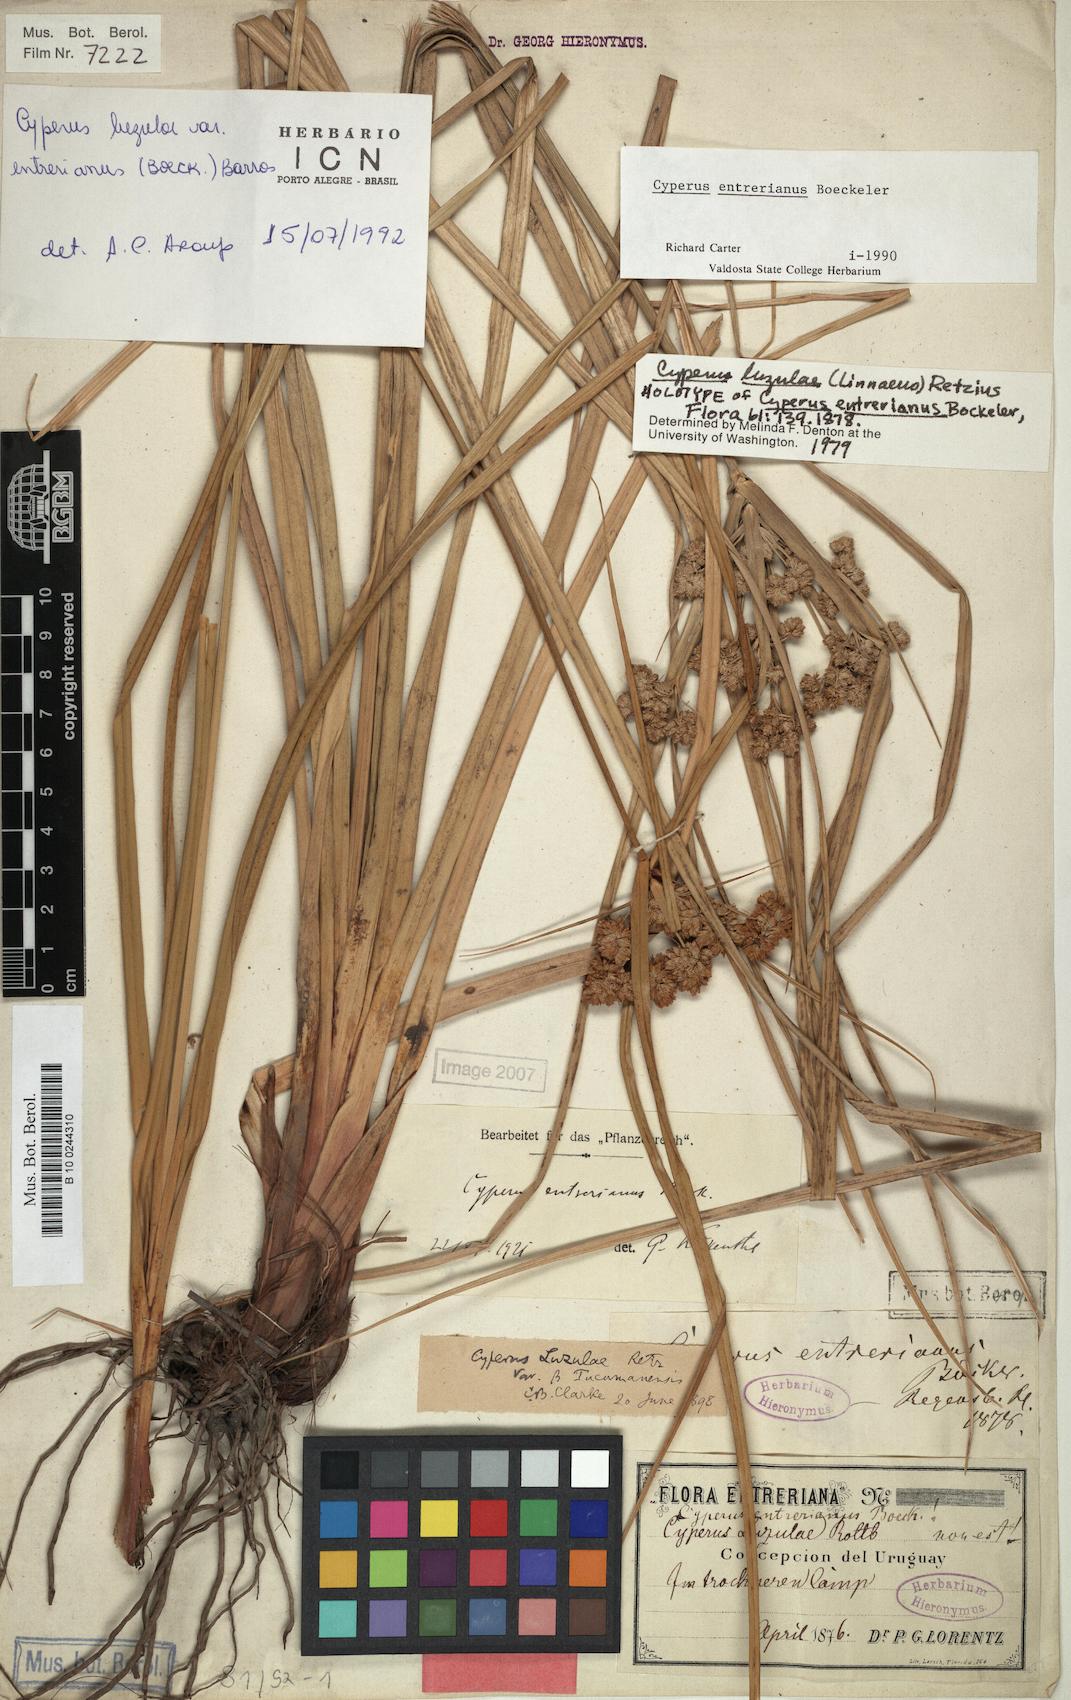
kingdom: Plantae
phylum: Tracheophyta
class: Liliopsida
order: Poales
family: Cyperaceae
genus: Cyperus
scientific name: Cyperus entrerianus
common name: Woodrush flatsedge
